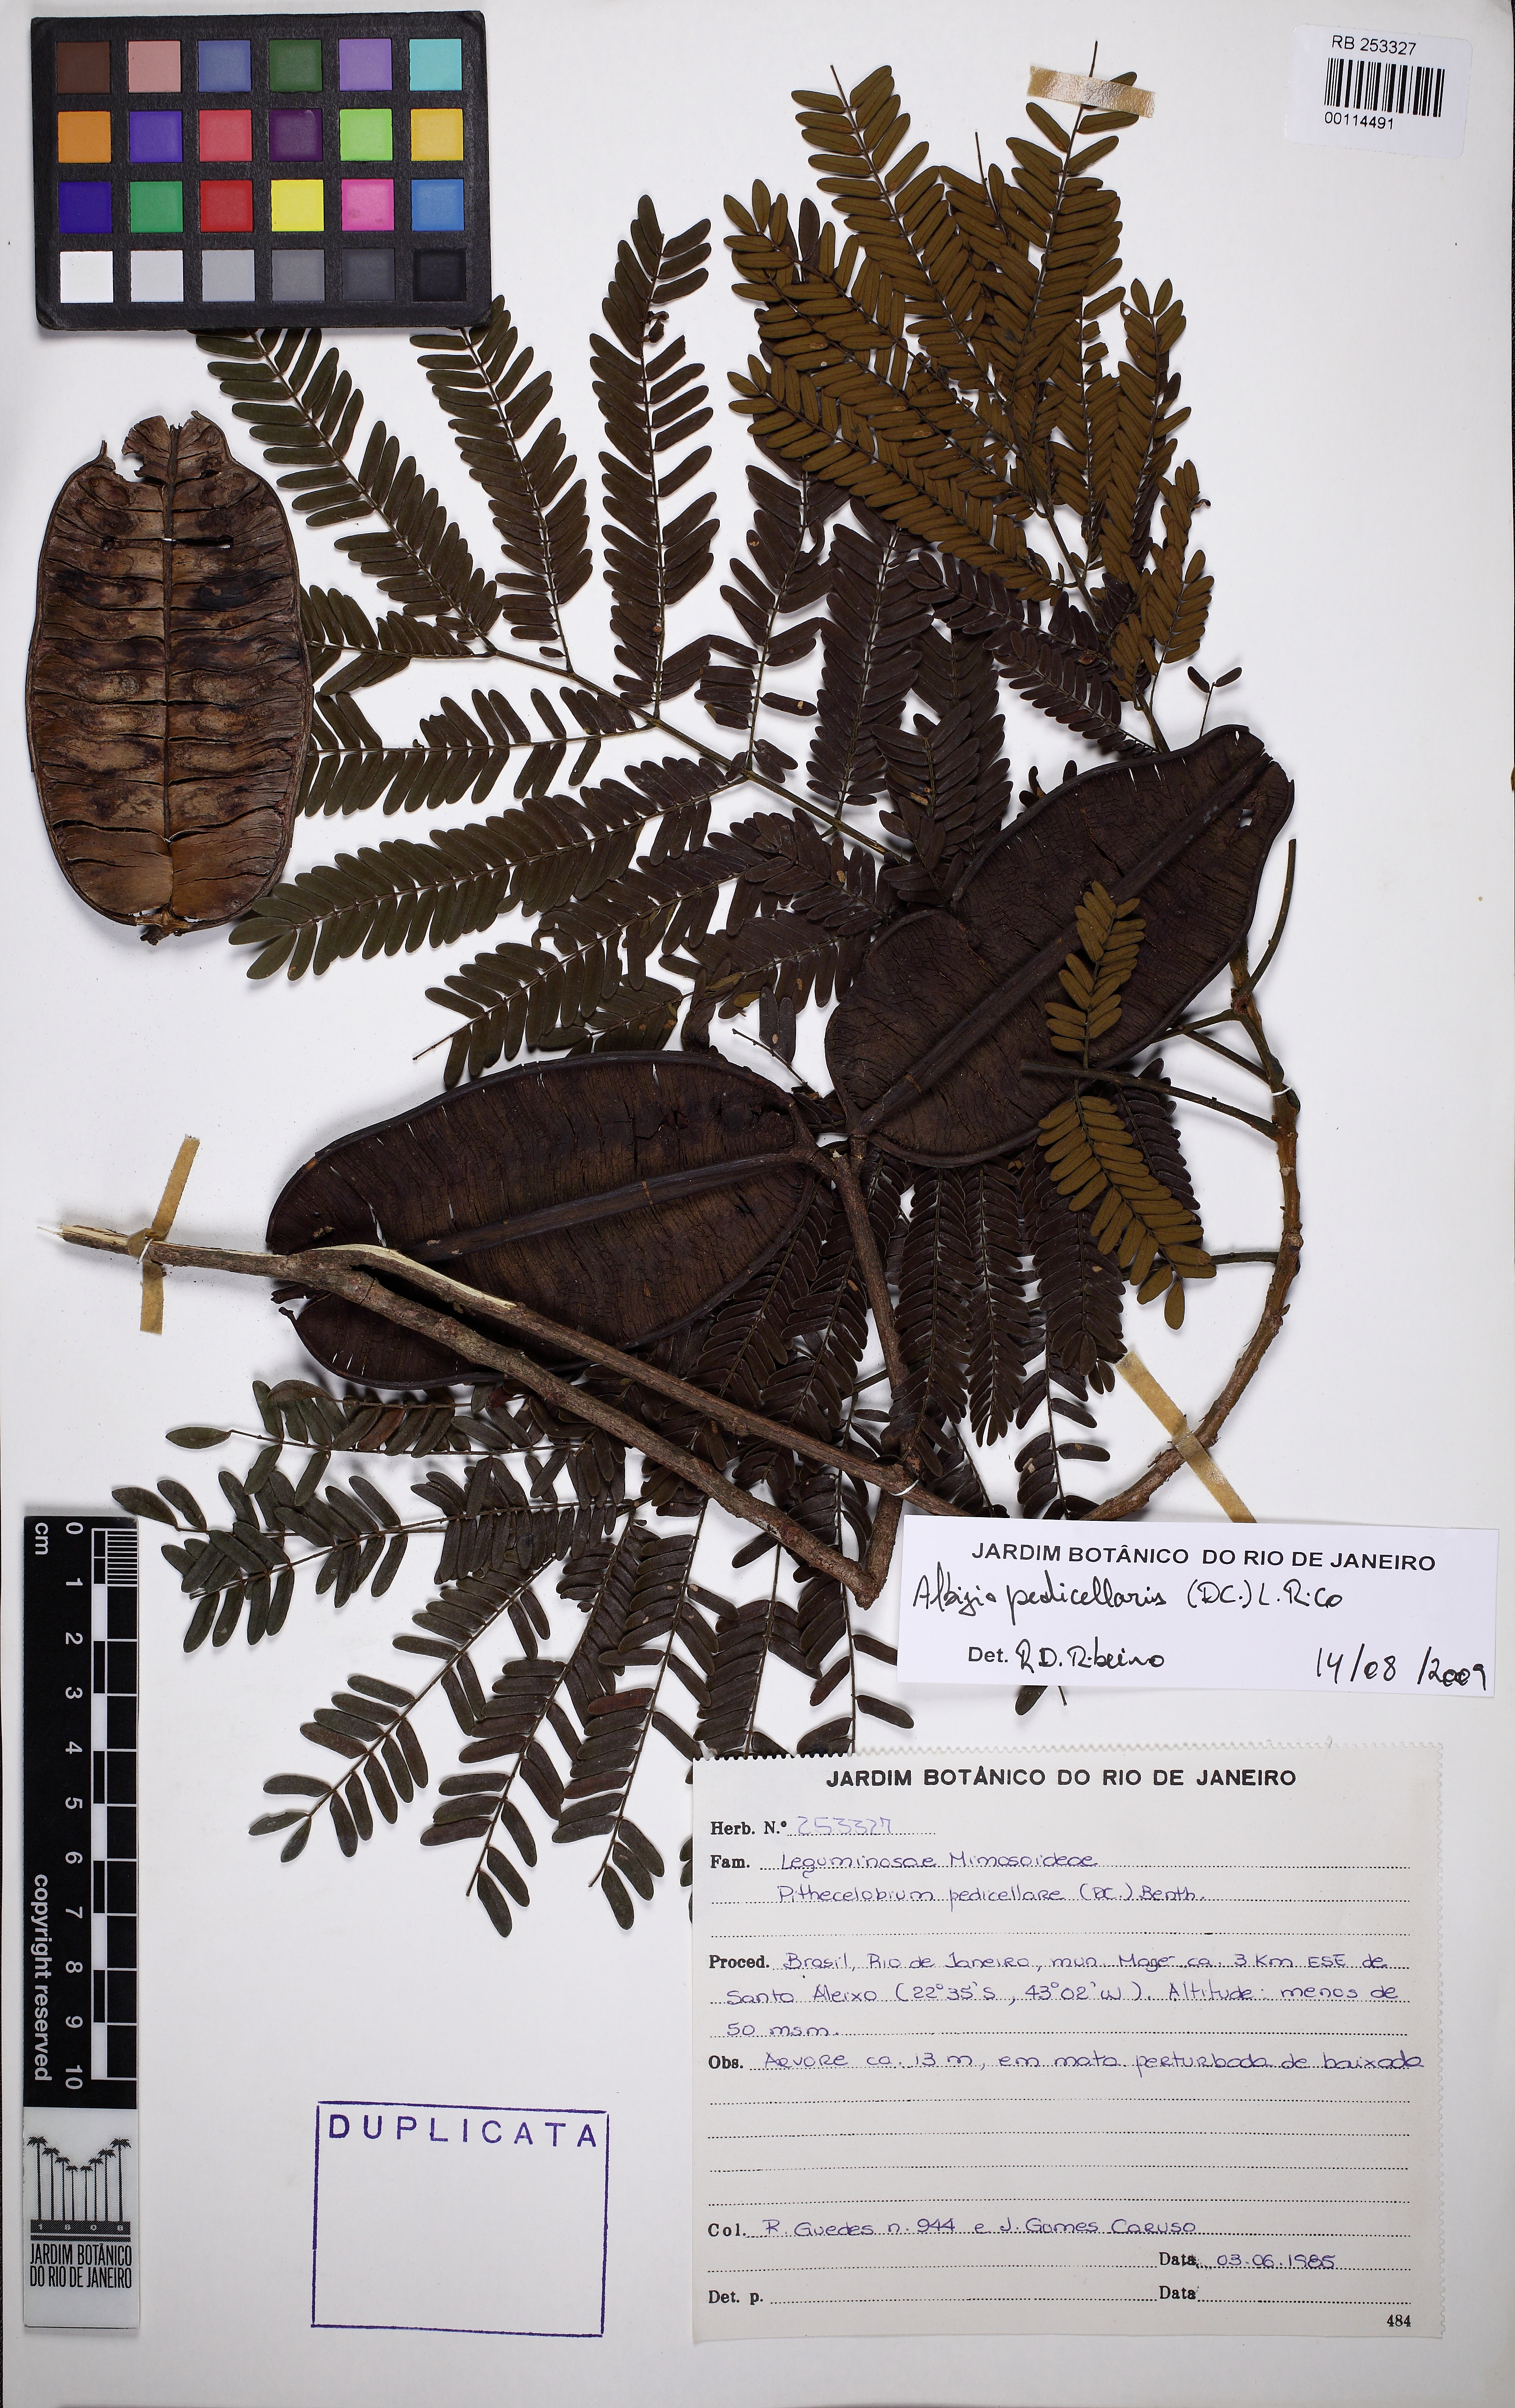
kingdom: Plantae
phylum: Tracheophyta
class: Magnoliopsida
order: Fabales
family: Fabaceae
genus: Balizia
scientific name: Balizia pedicellaris
